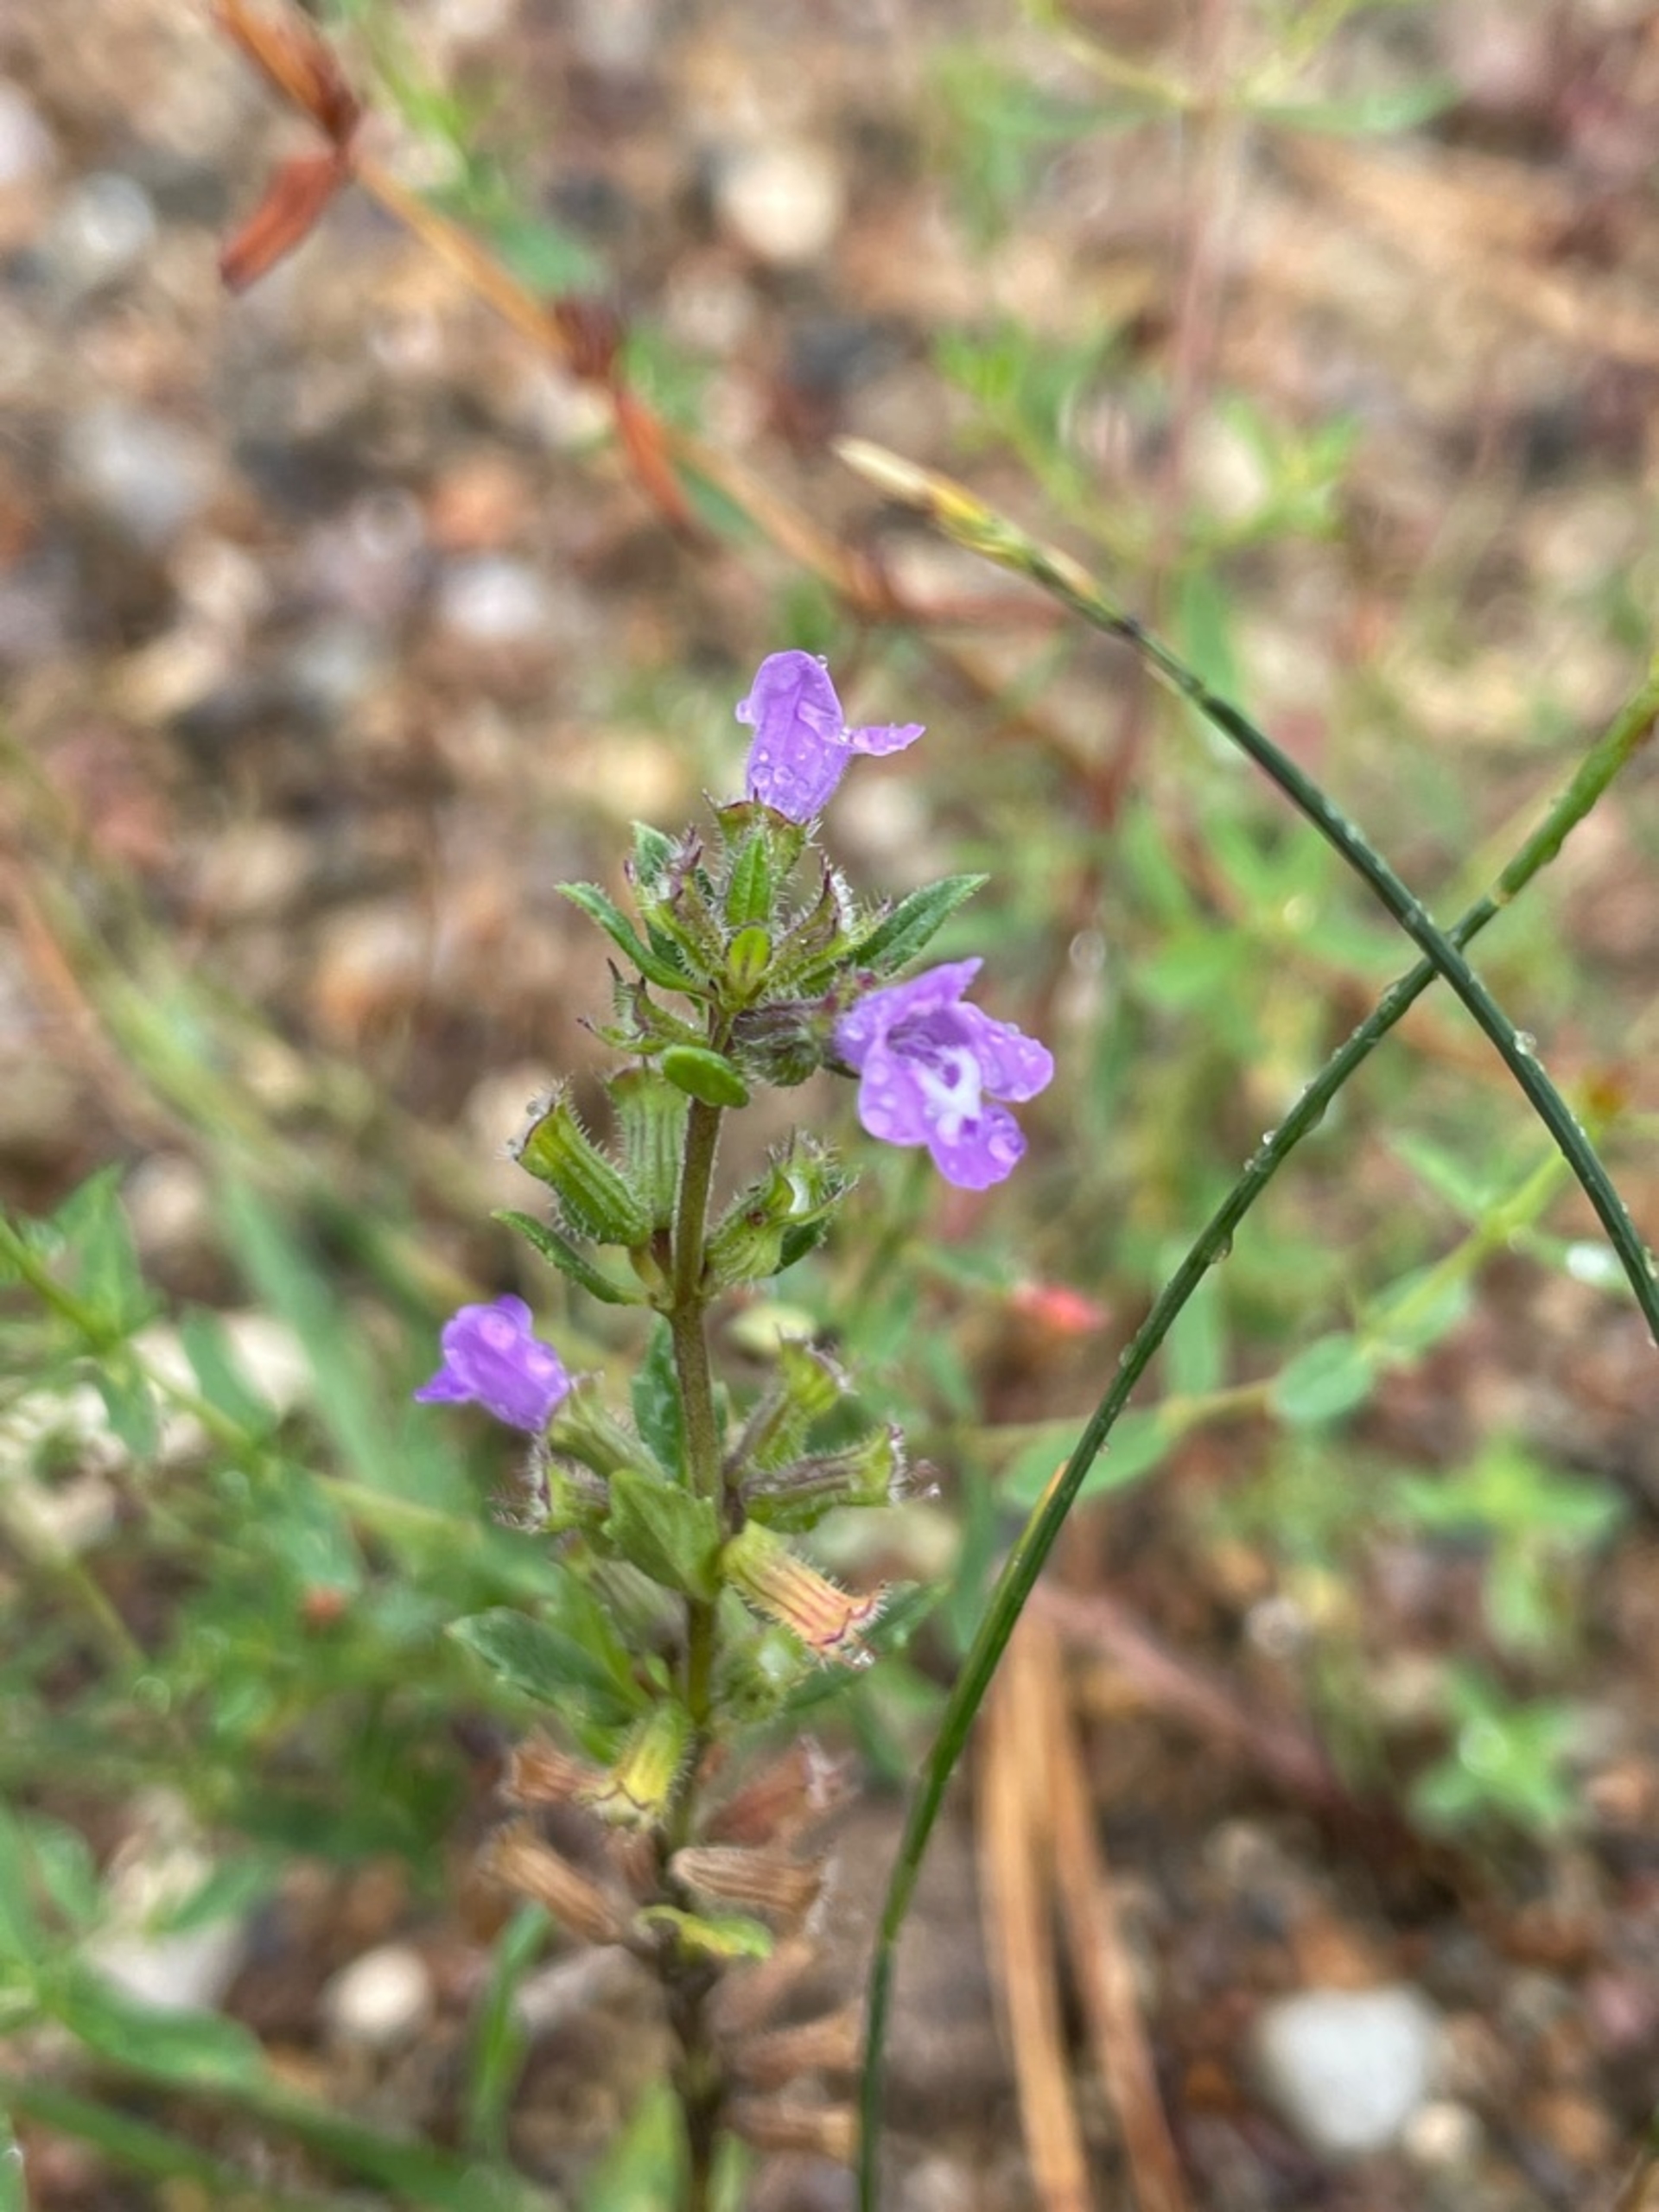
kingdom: Plantae
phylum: Tracheophyta
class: Magnoliopsida
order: Lamiales
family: Lamiaceae
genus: Clinopodium
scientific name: Clinopodium acinos
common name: Voldtimian
